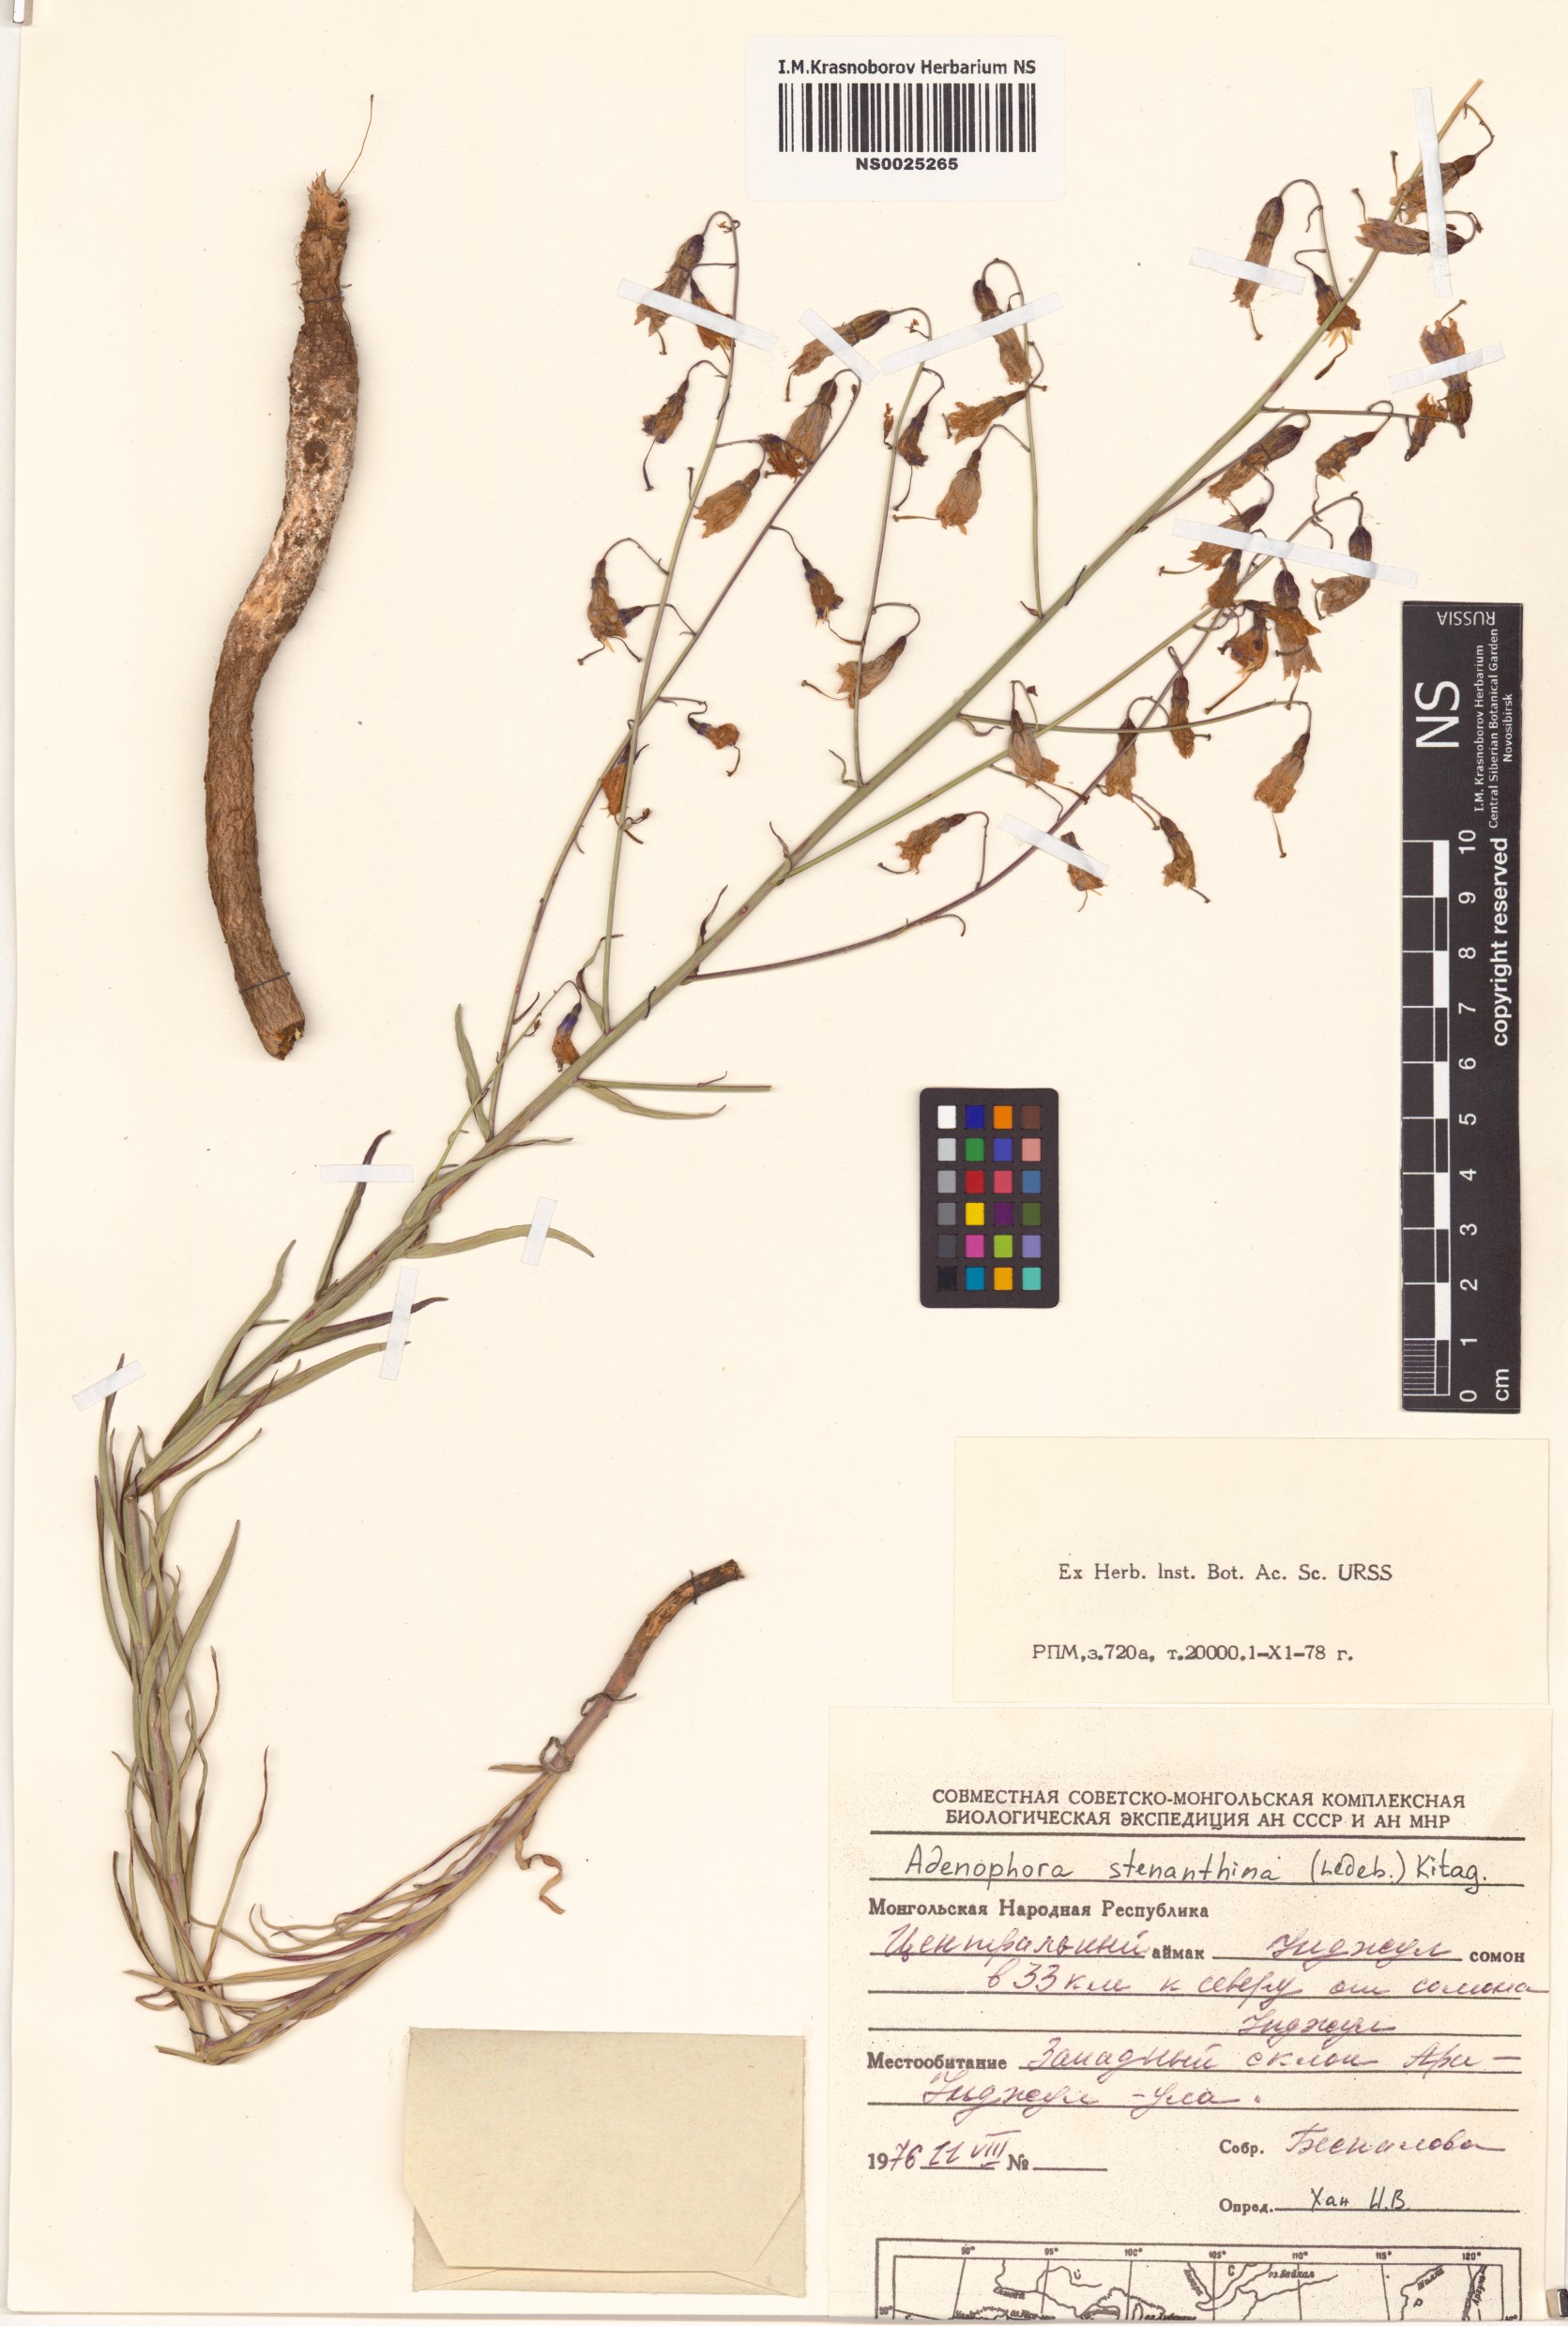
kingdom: Plantae
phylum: Tracheophyta
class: Magnoliopsida
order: Asterales
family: Campanulaceae
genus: Adenophora
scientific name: Adenophora stenanthina
